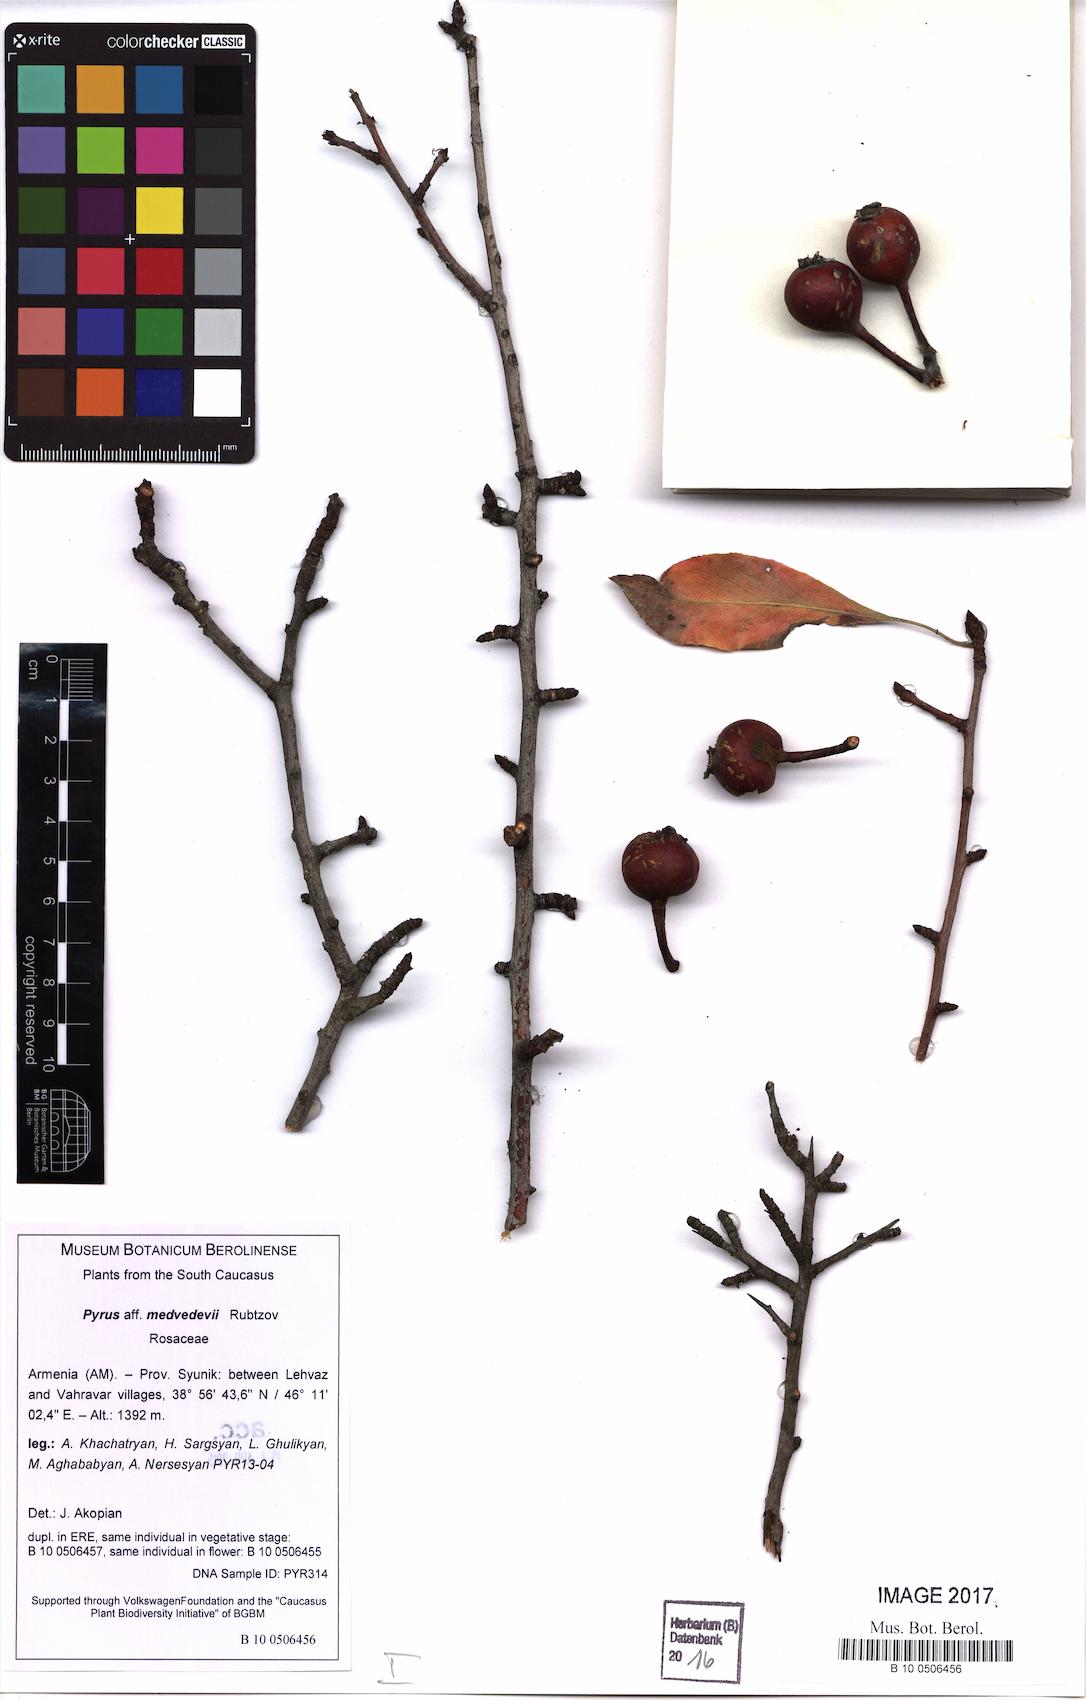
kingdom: Plantae
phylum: Tracheophyta
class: Magnoliopsida
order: Rosales
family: Rosaceae
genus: Pyrus
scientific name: Pyrus medvedevii
